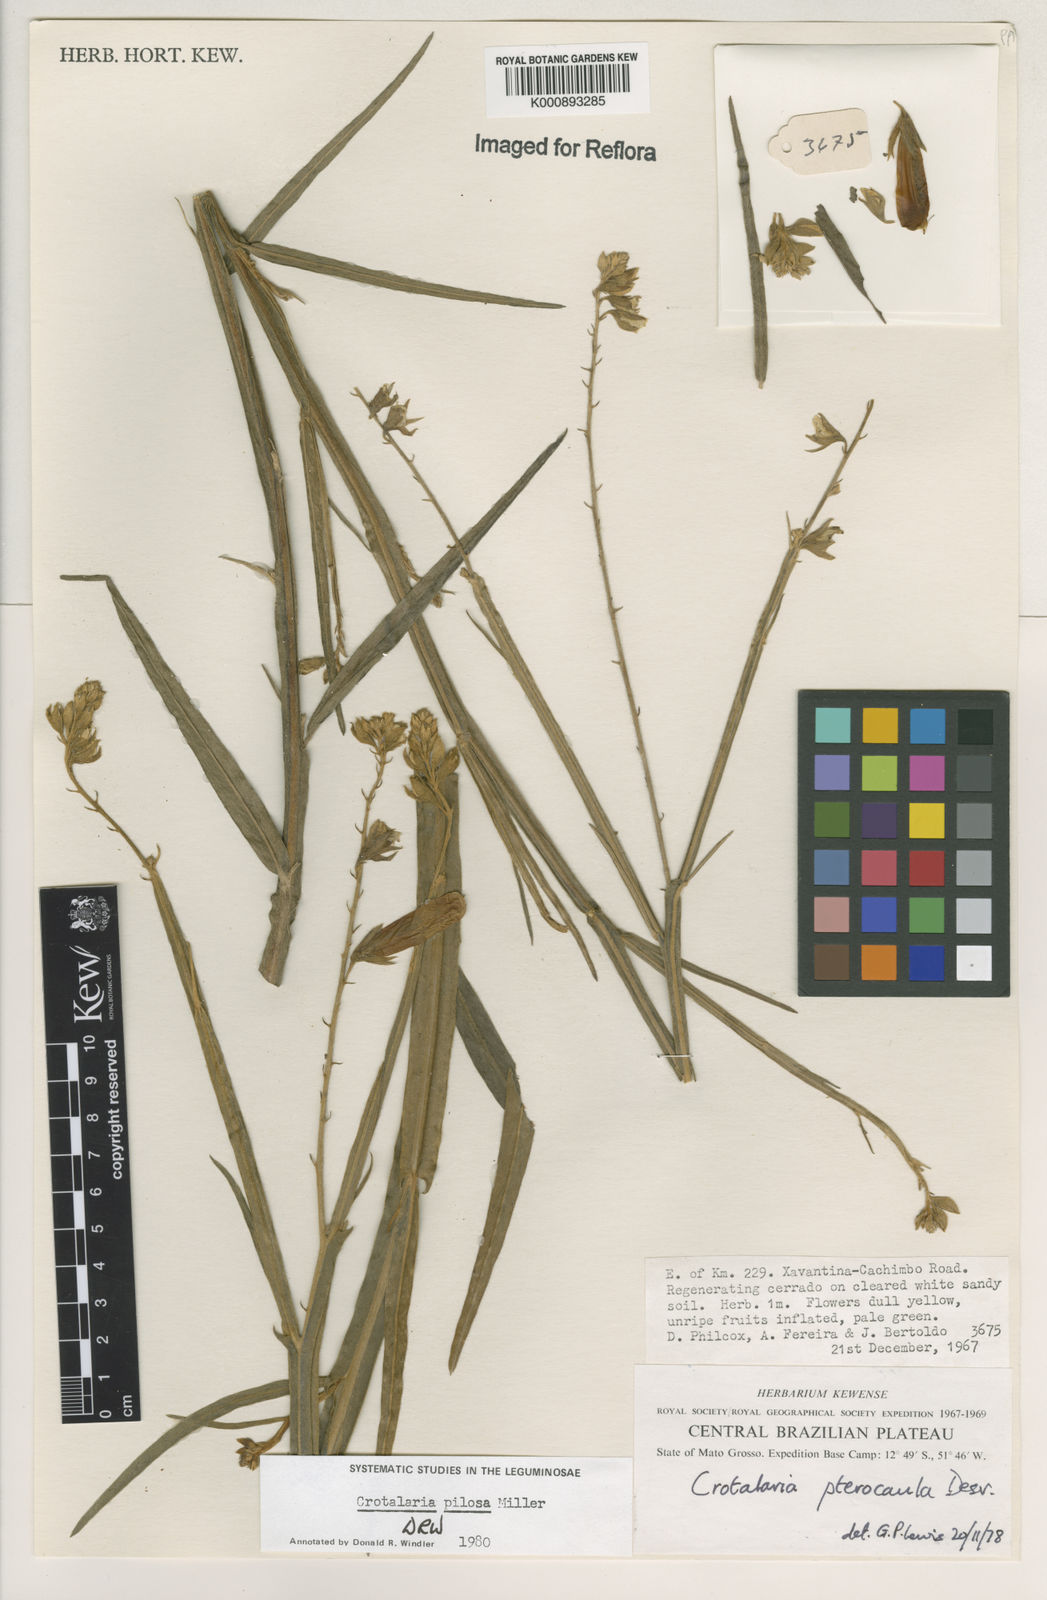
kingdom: Plantae
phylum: Tracheophyta
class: Magnoliopsida
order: Fabales
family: Fabaceae
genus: Crotalaria
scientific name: Crotalaria pilosa
